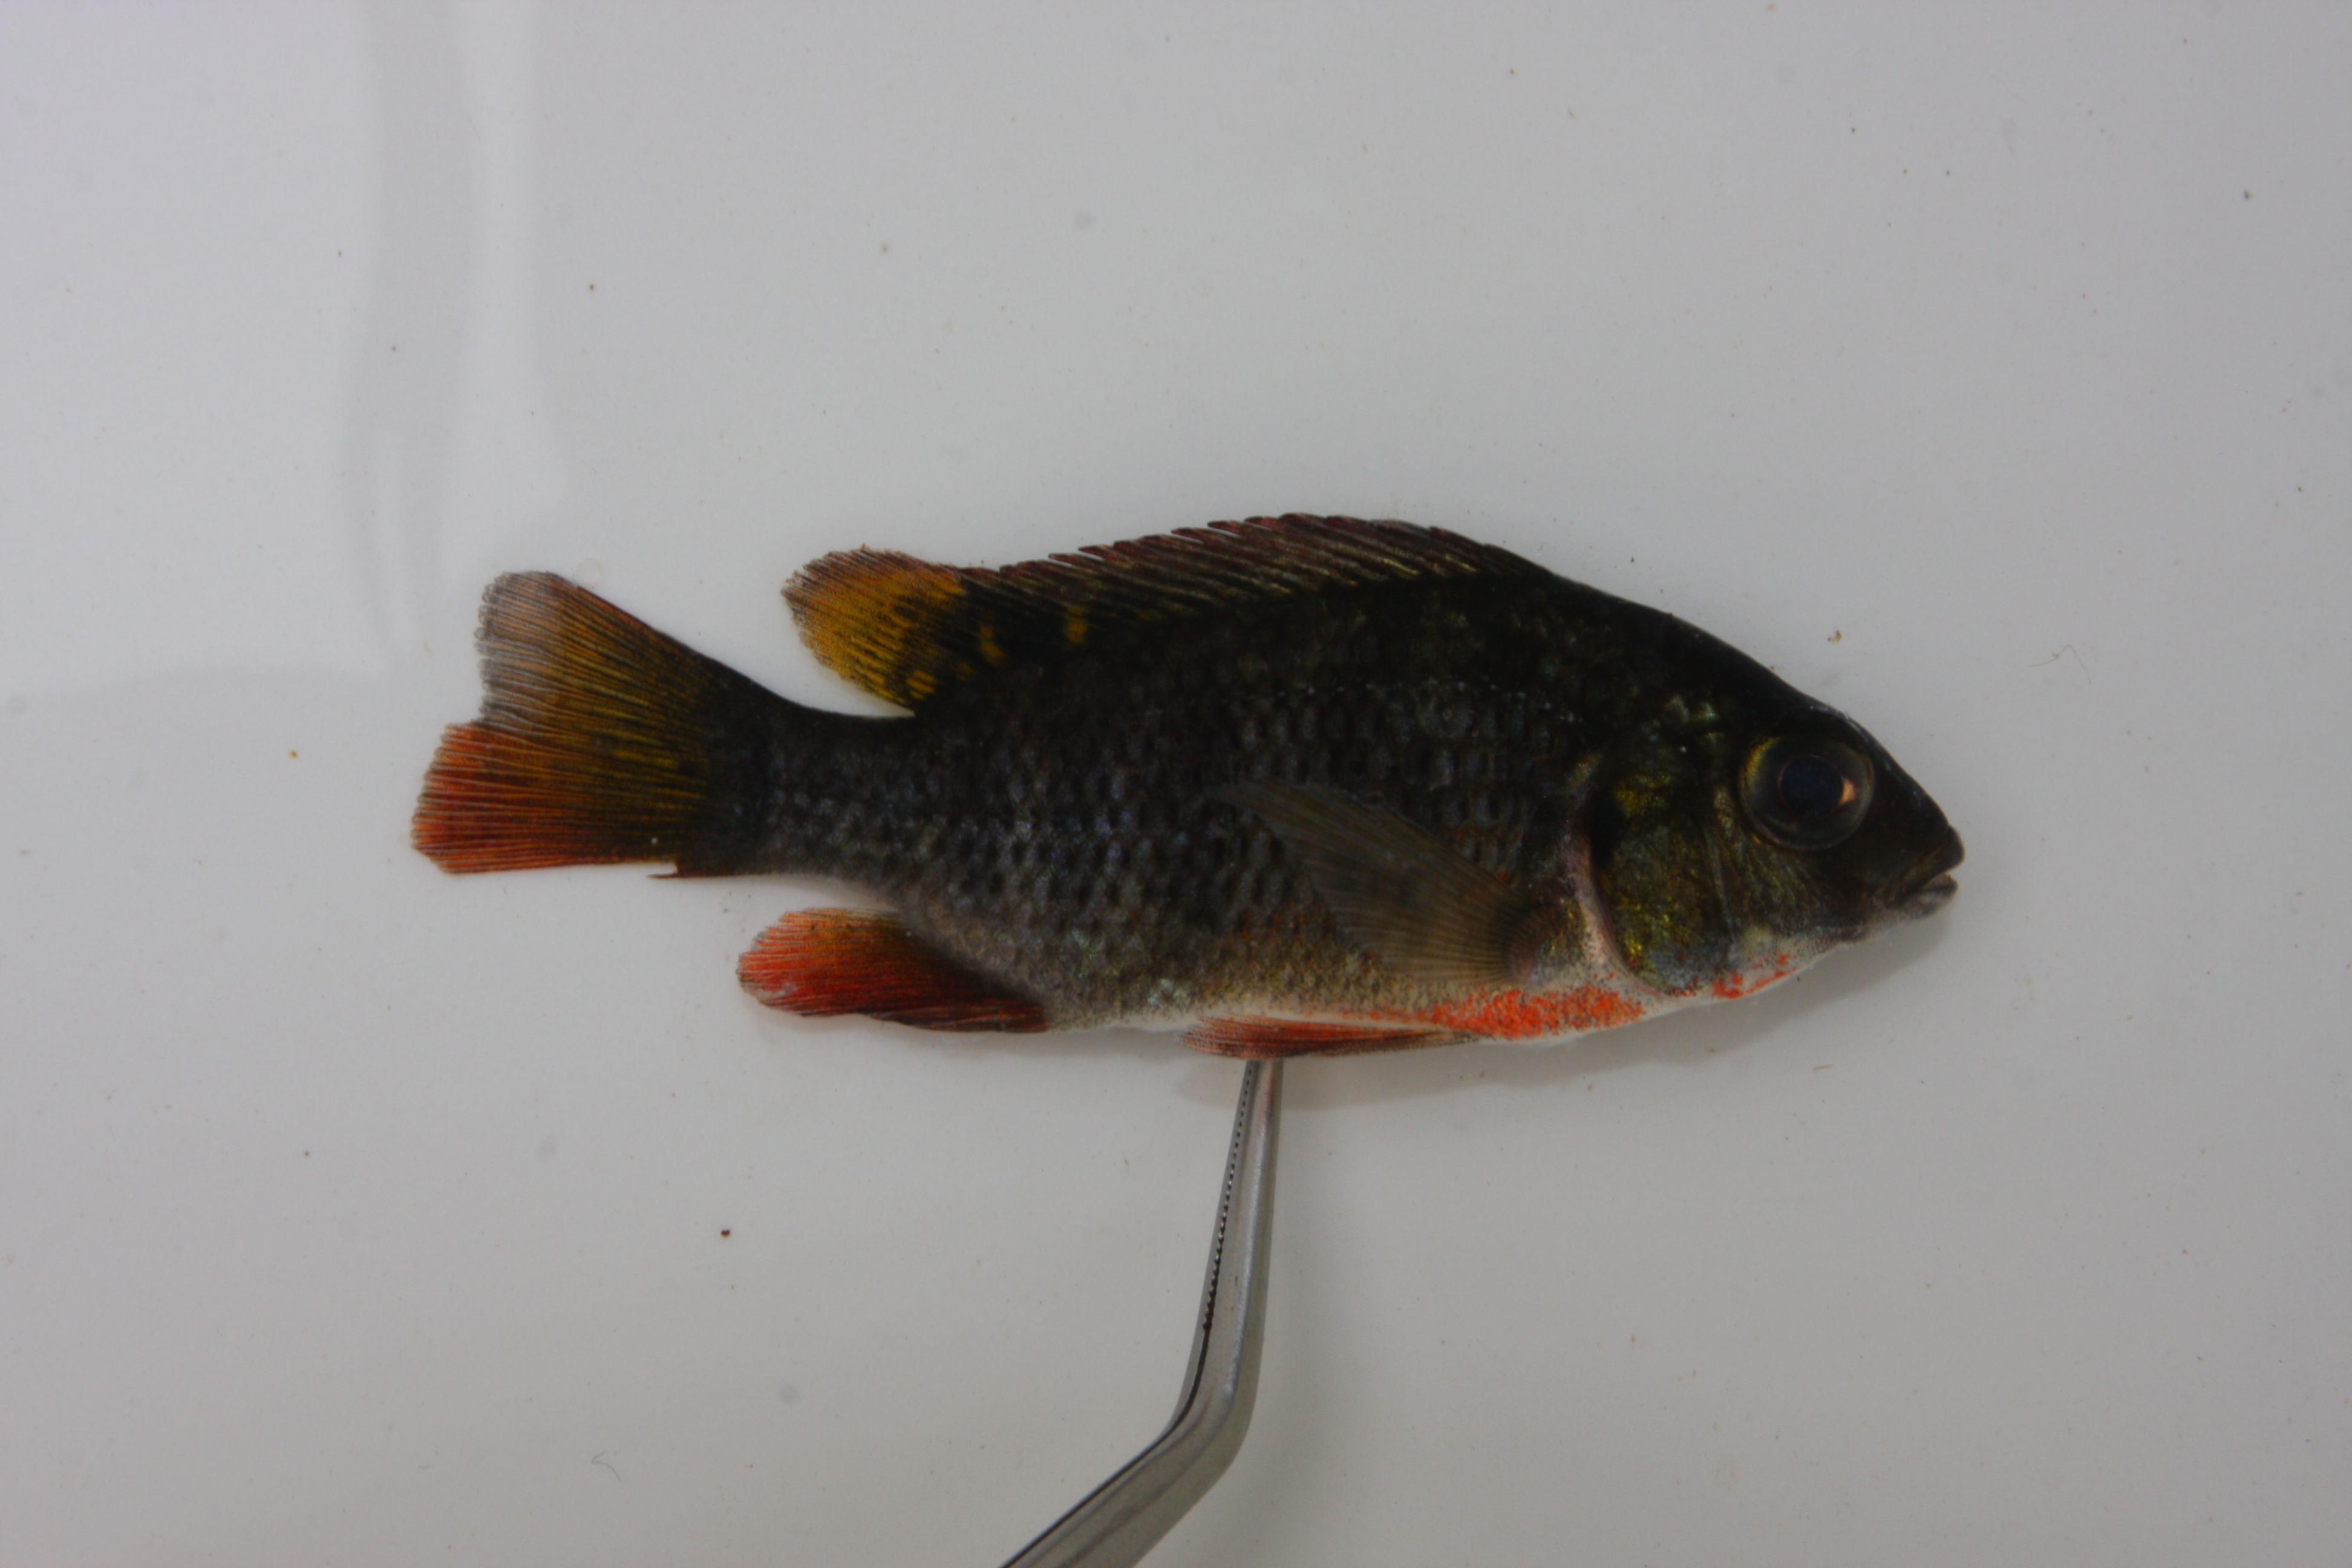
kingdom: Animalia
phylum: Chordata
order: Perciformes
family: Cichlidae
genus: Coptodon
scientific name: Coptodon rendalli
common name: Redbreast tilapia
